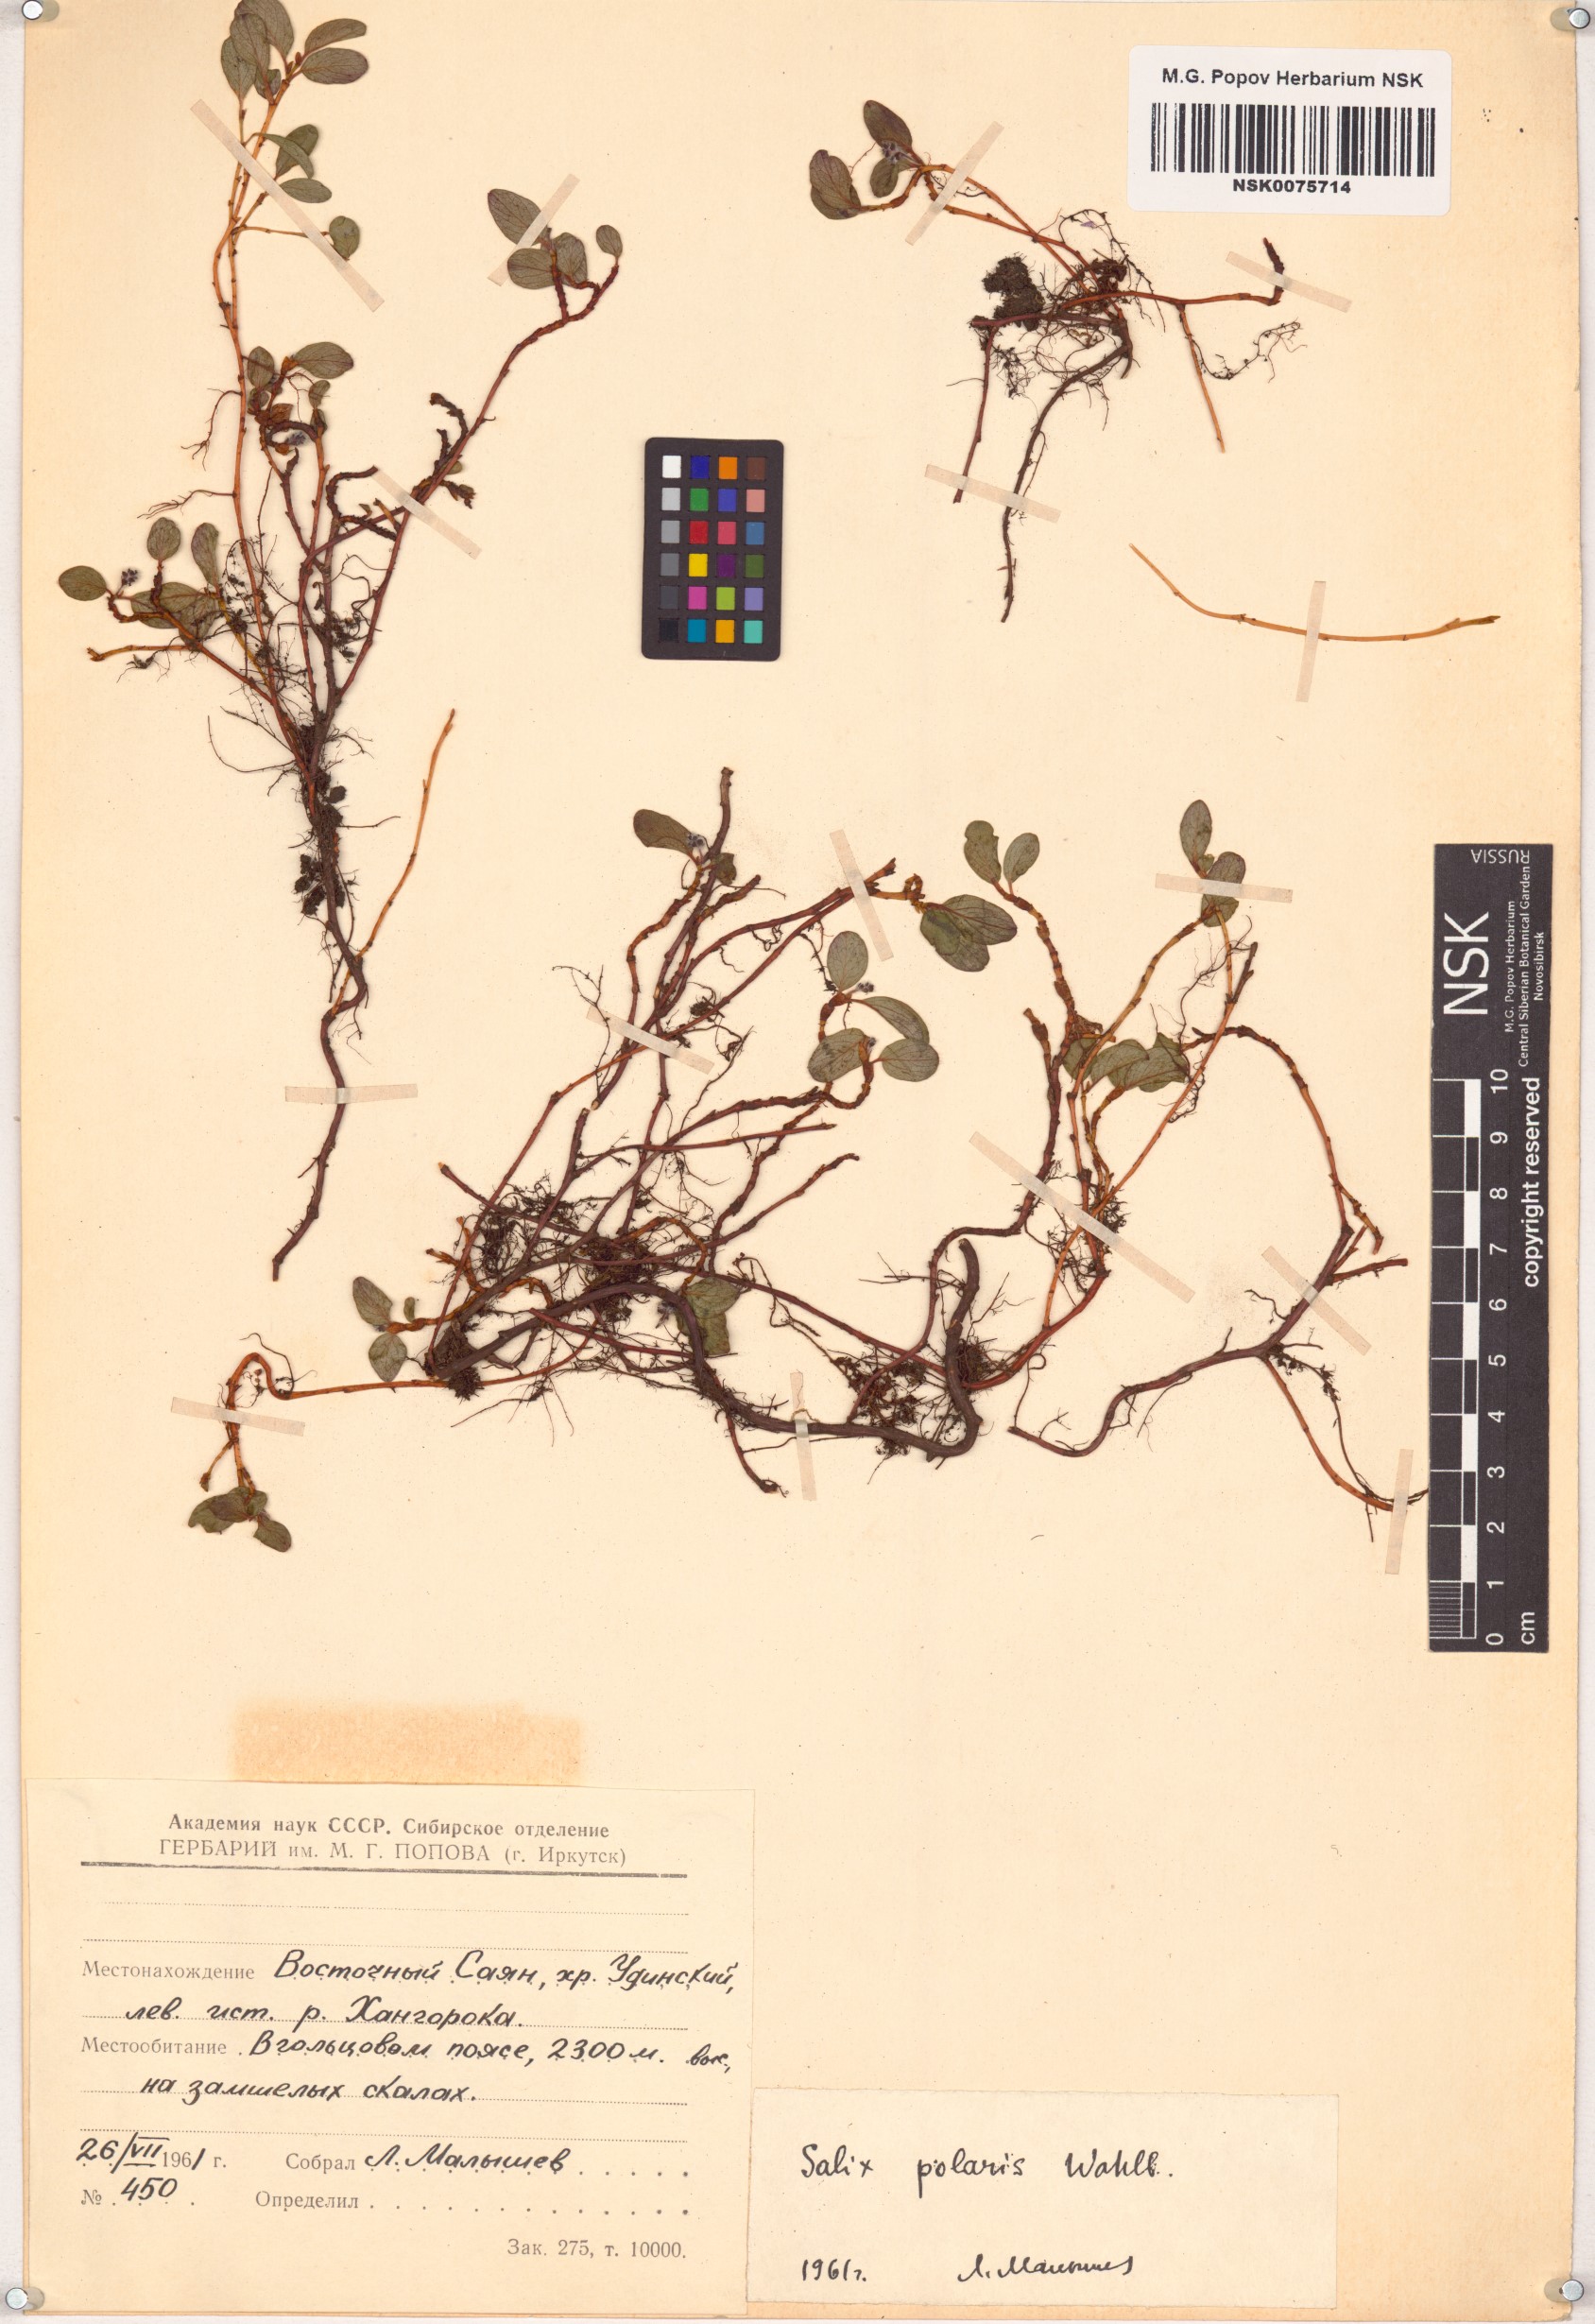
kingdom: Plantae
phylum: Tracheophyta
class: Magnoliopsida
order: Malpighiales
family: Salicaceae
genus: Salix
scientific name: Salix polaris
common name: Polar willow
